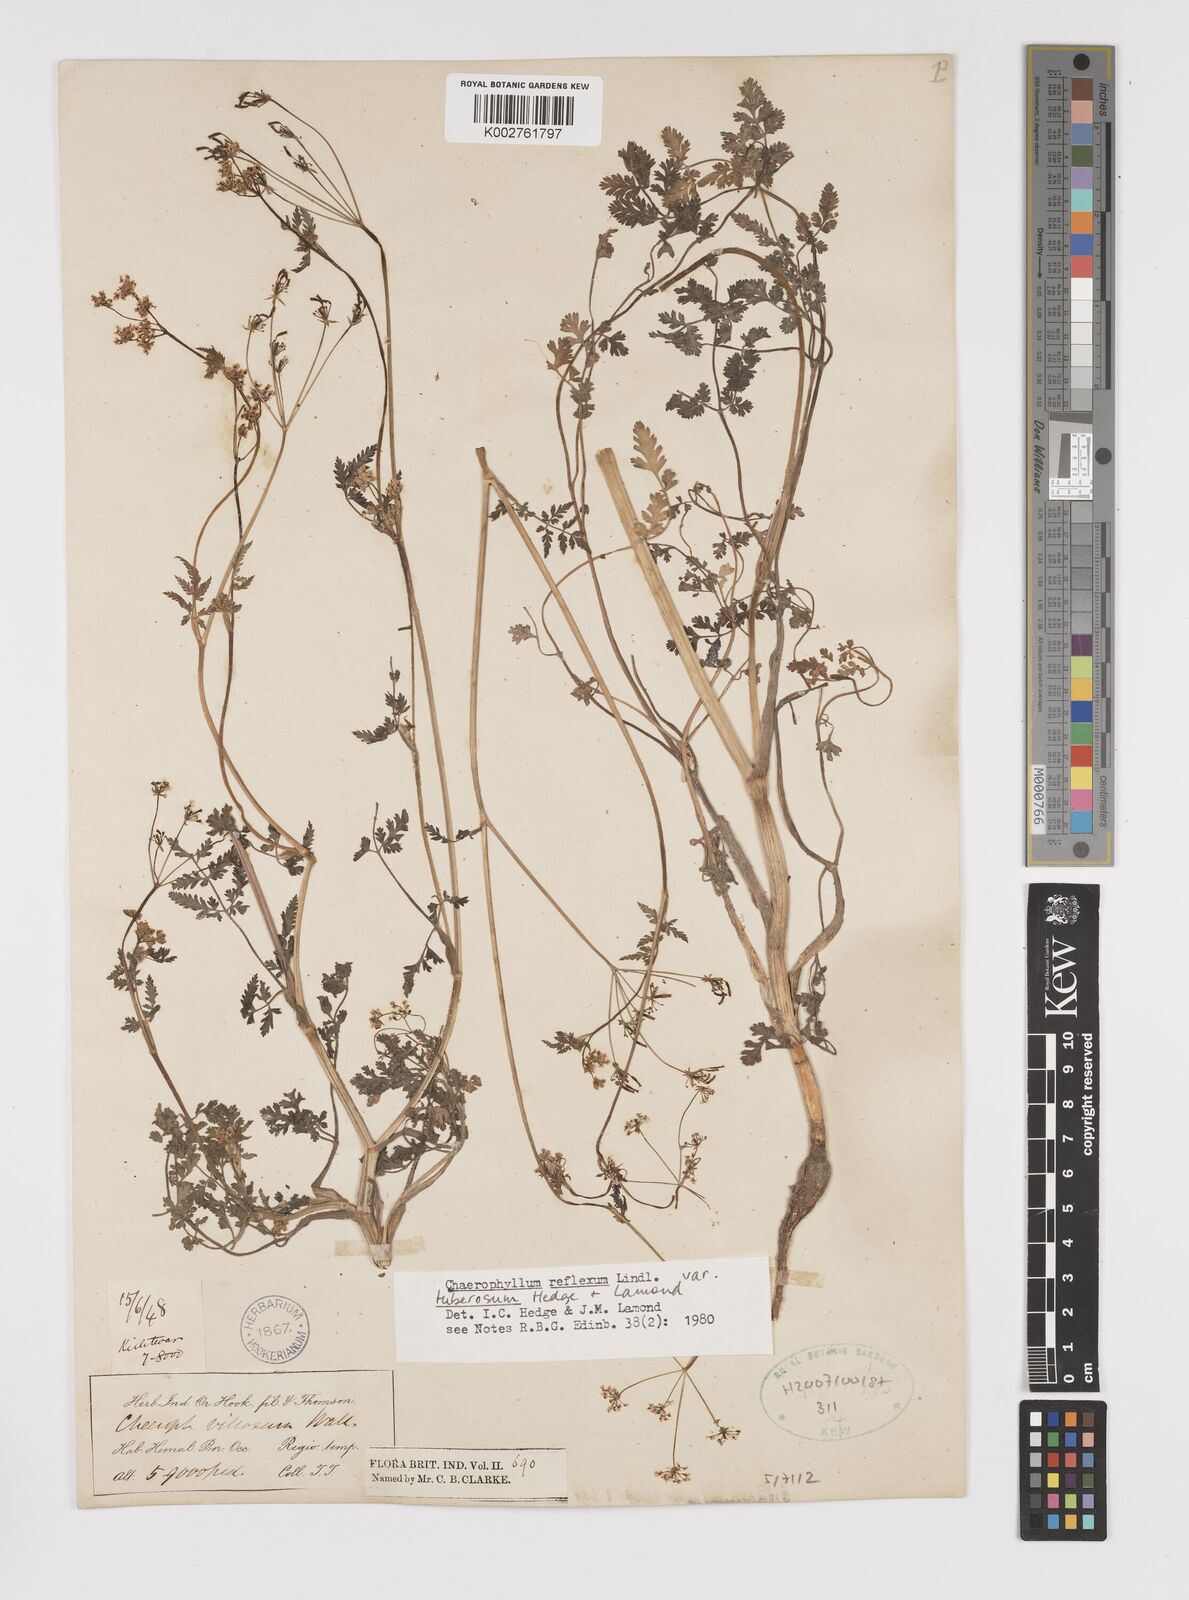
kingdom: Plantae
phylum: Tracheophyta
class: Magnoliopsida
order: Apiales
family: Apiaceae
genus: Chaerophyllum
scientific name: Chaerophyllum reflexum
